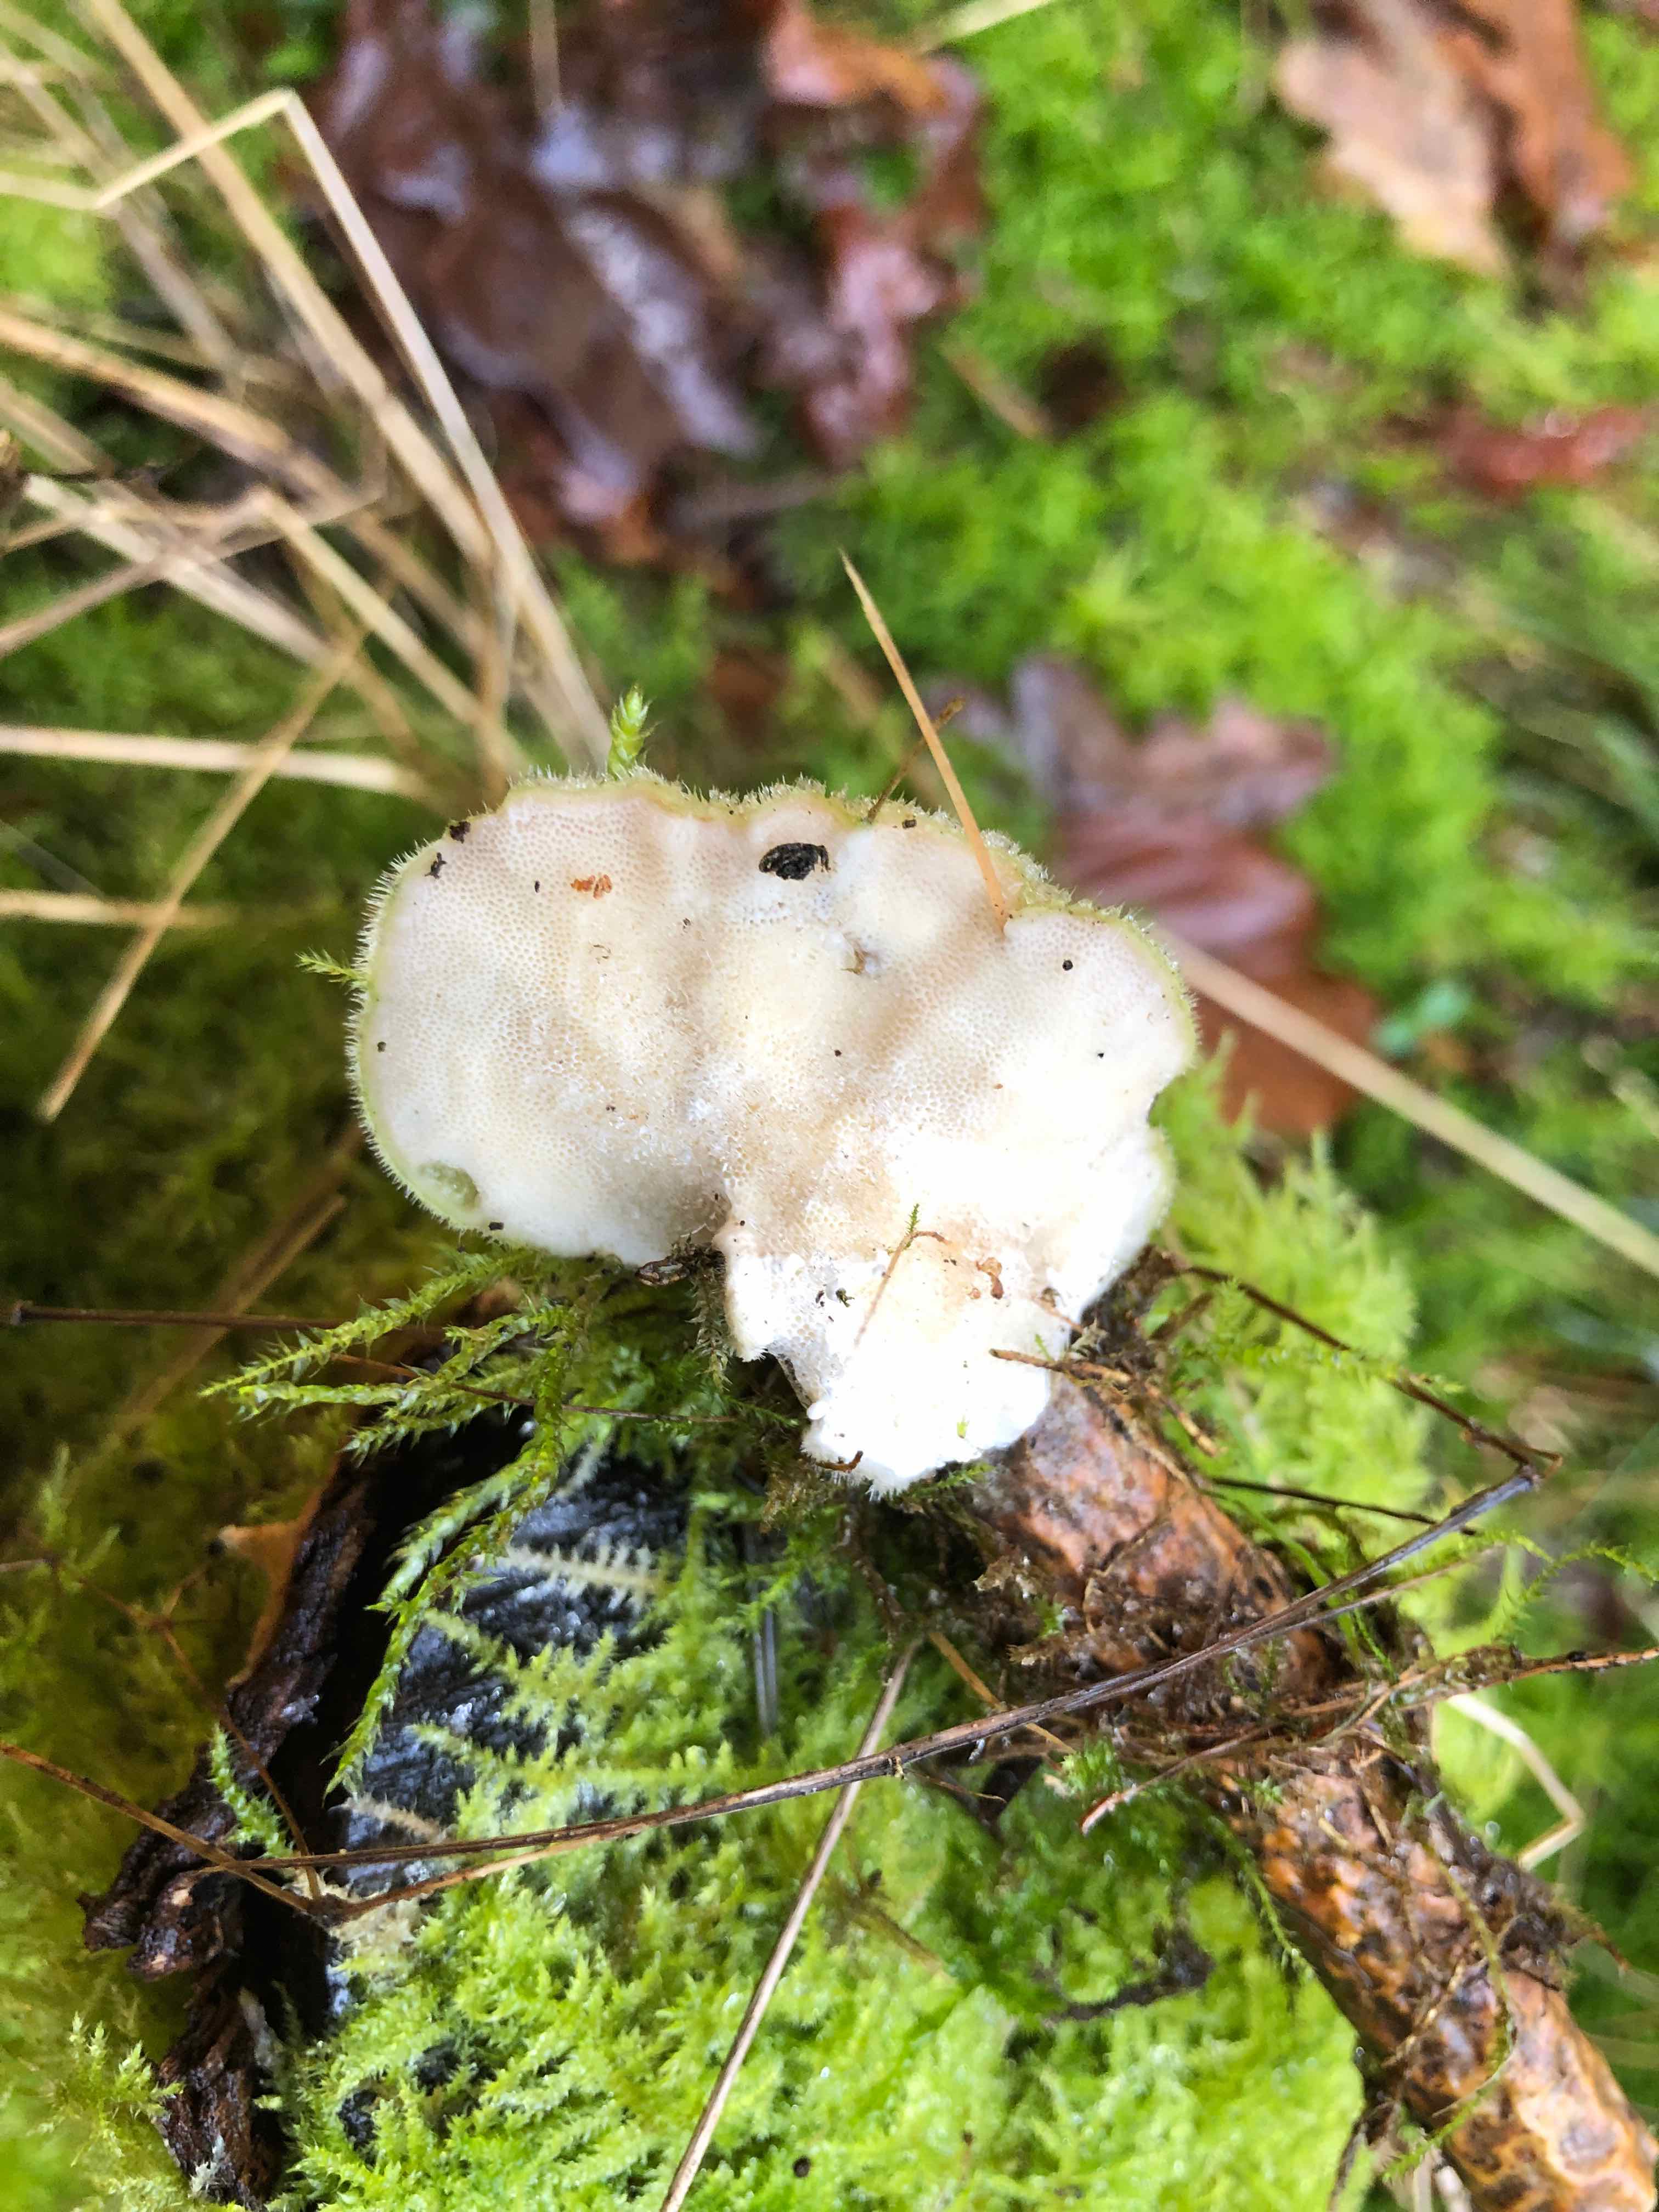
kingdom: Fungi
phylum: Basidiomycota
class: Agaricomycetes
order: Polyporales
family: Polyporaceae
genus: Trametes
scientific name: Trametes hirsuta
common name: håret læderporesvamp
